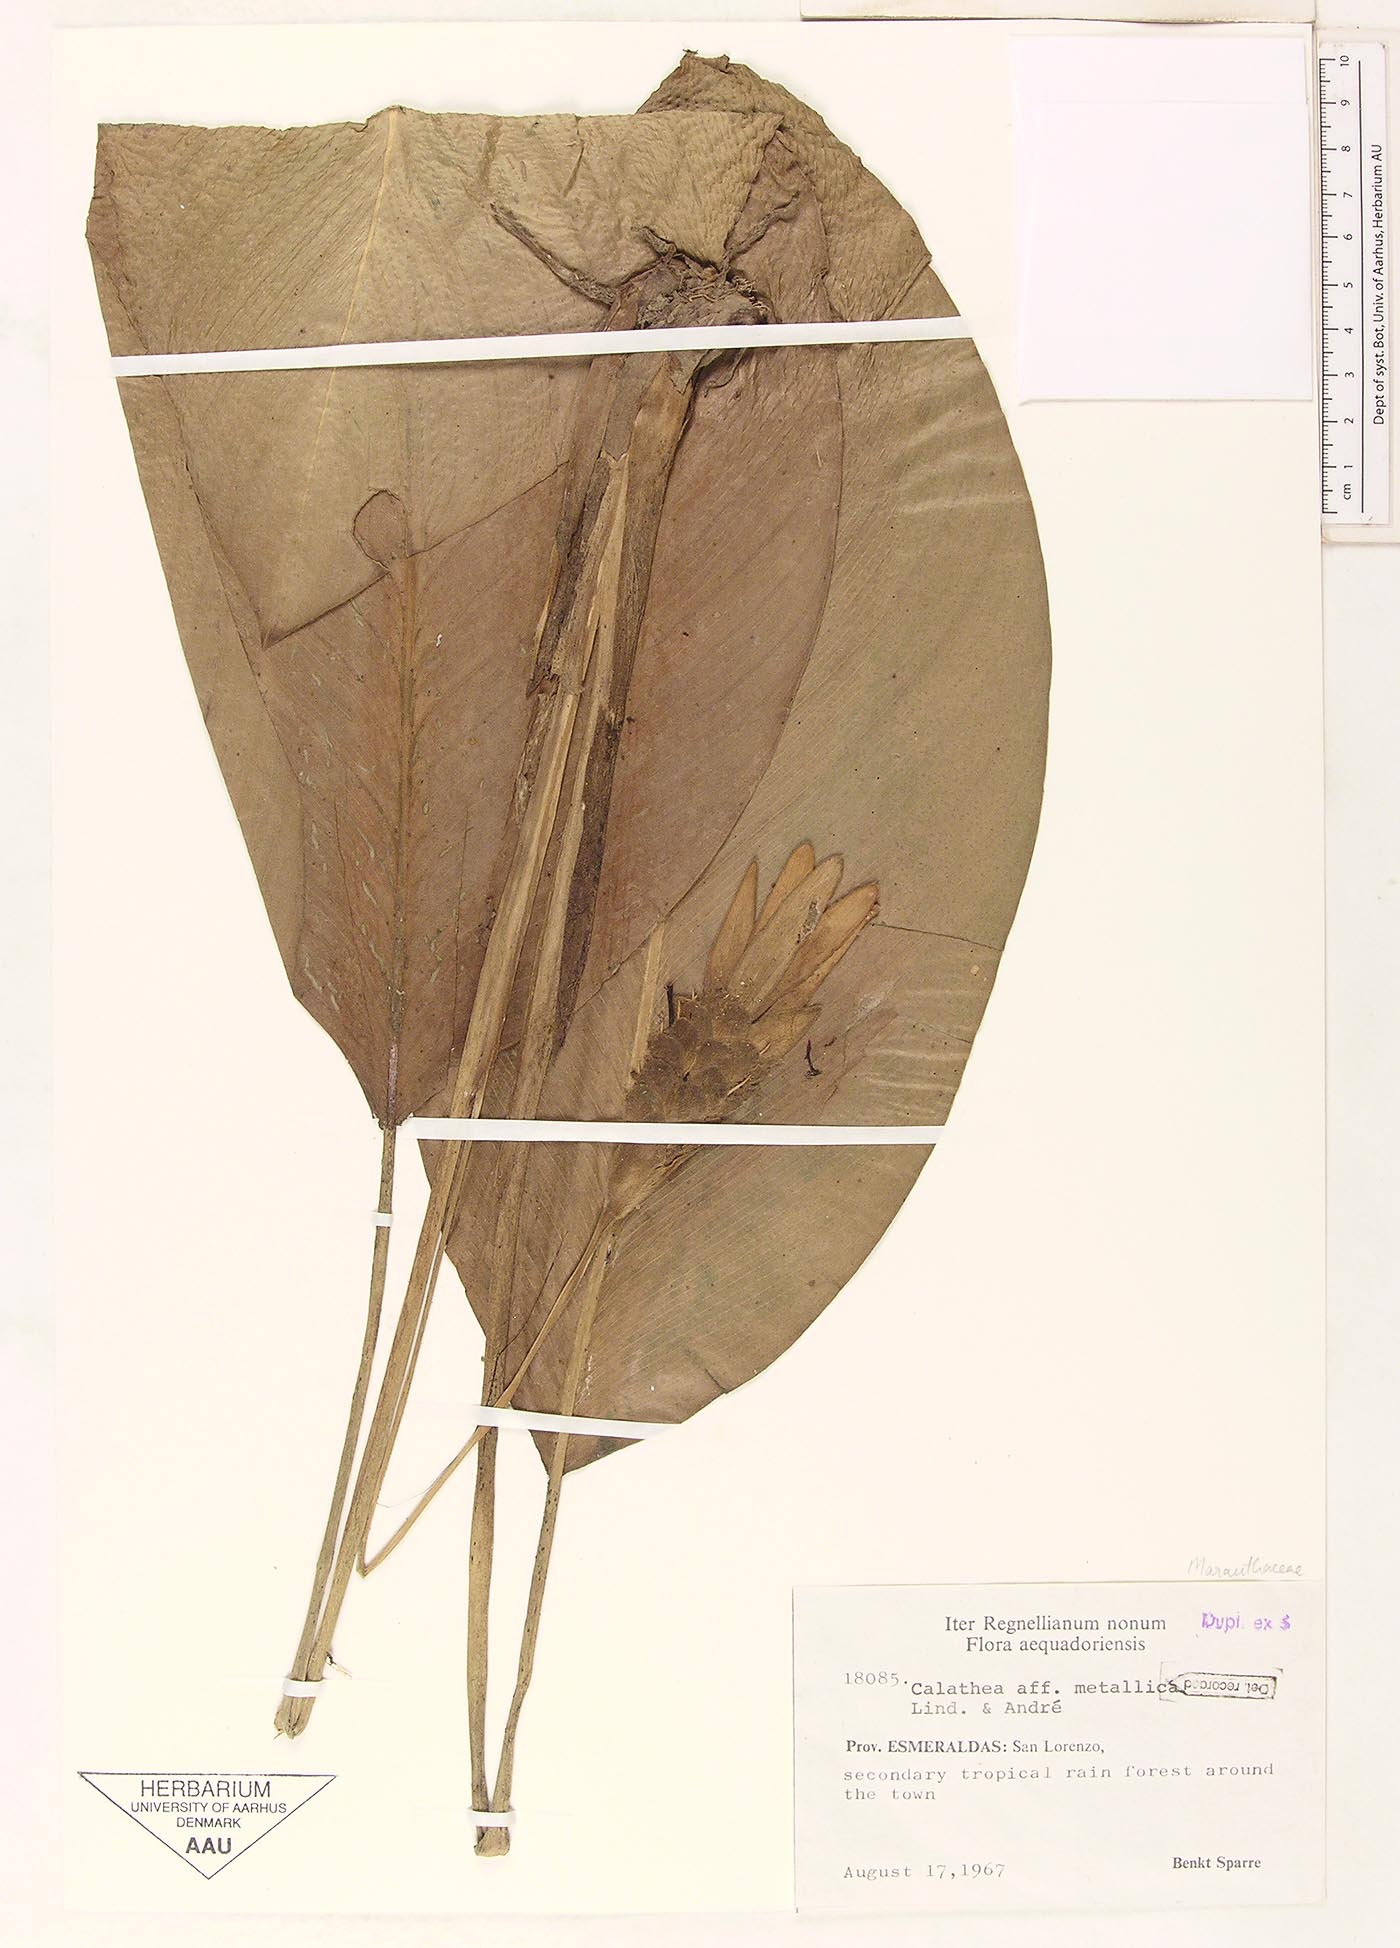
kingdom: Plantae
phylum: Tracheophyta
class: Liliopsida
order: Zingiberales
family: Marantaceae
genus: Goeppertia
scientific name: Goeppertia metallica
